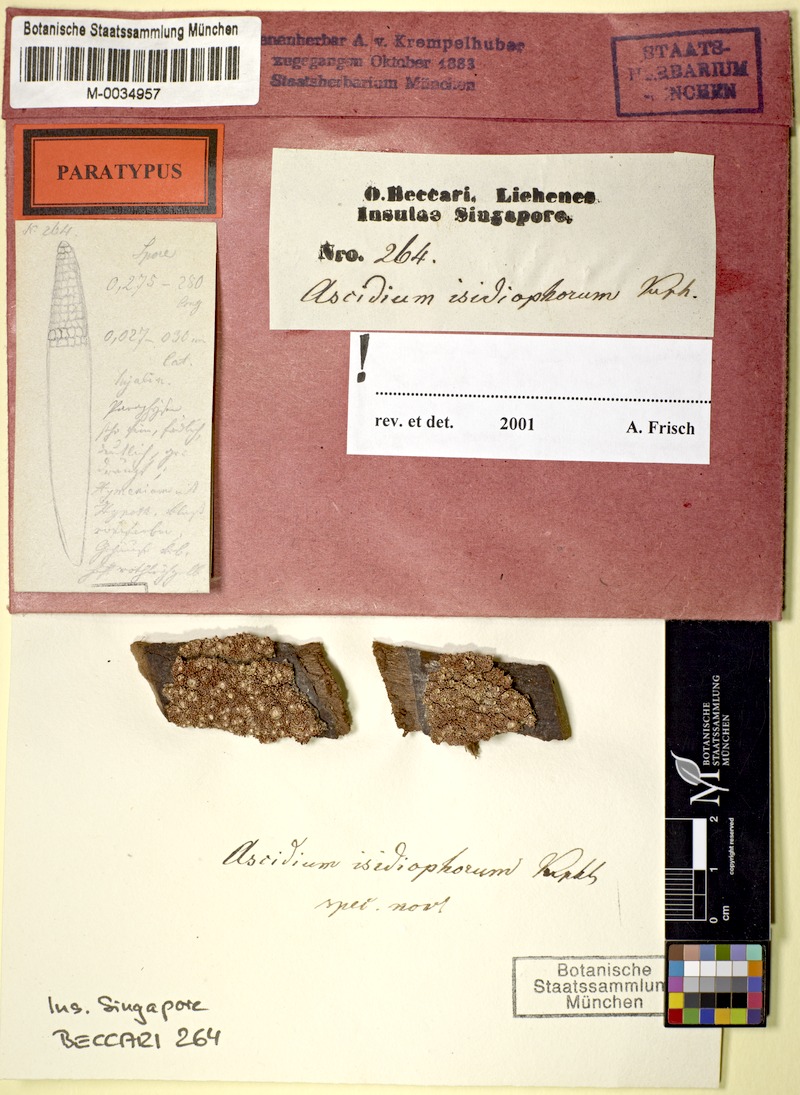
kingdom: Fungi
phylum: Ascomycota
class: Lecanoromycetes
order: Ostropales
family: Graphidaceae
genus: Thelotrema
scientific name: Thelotrema isidiophorum
